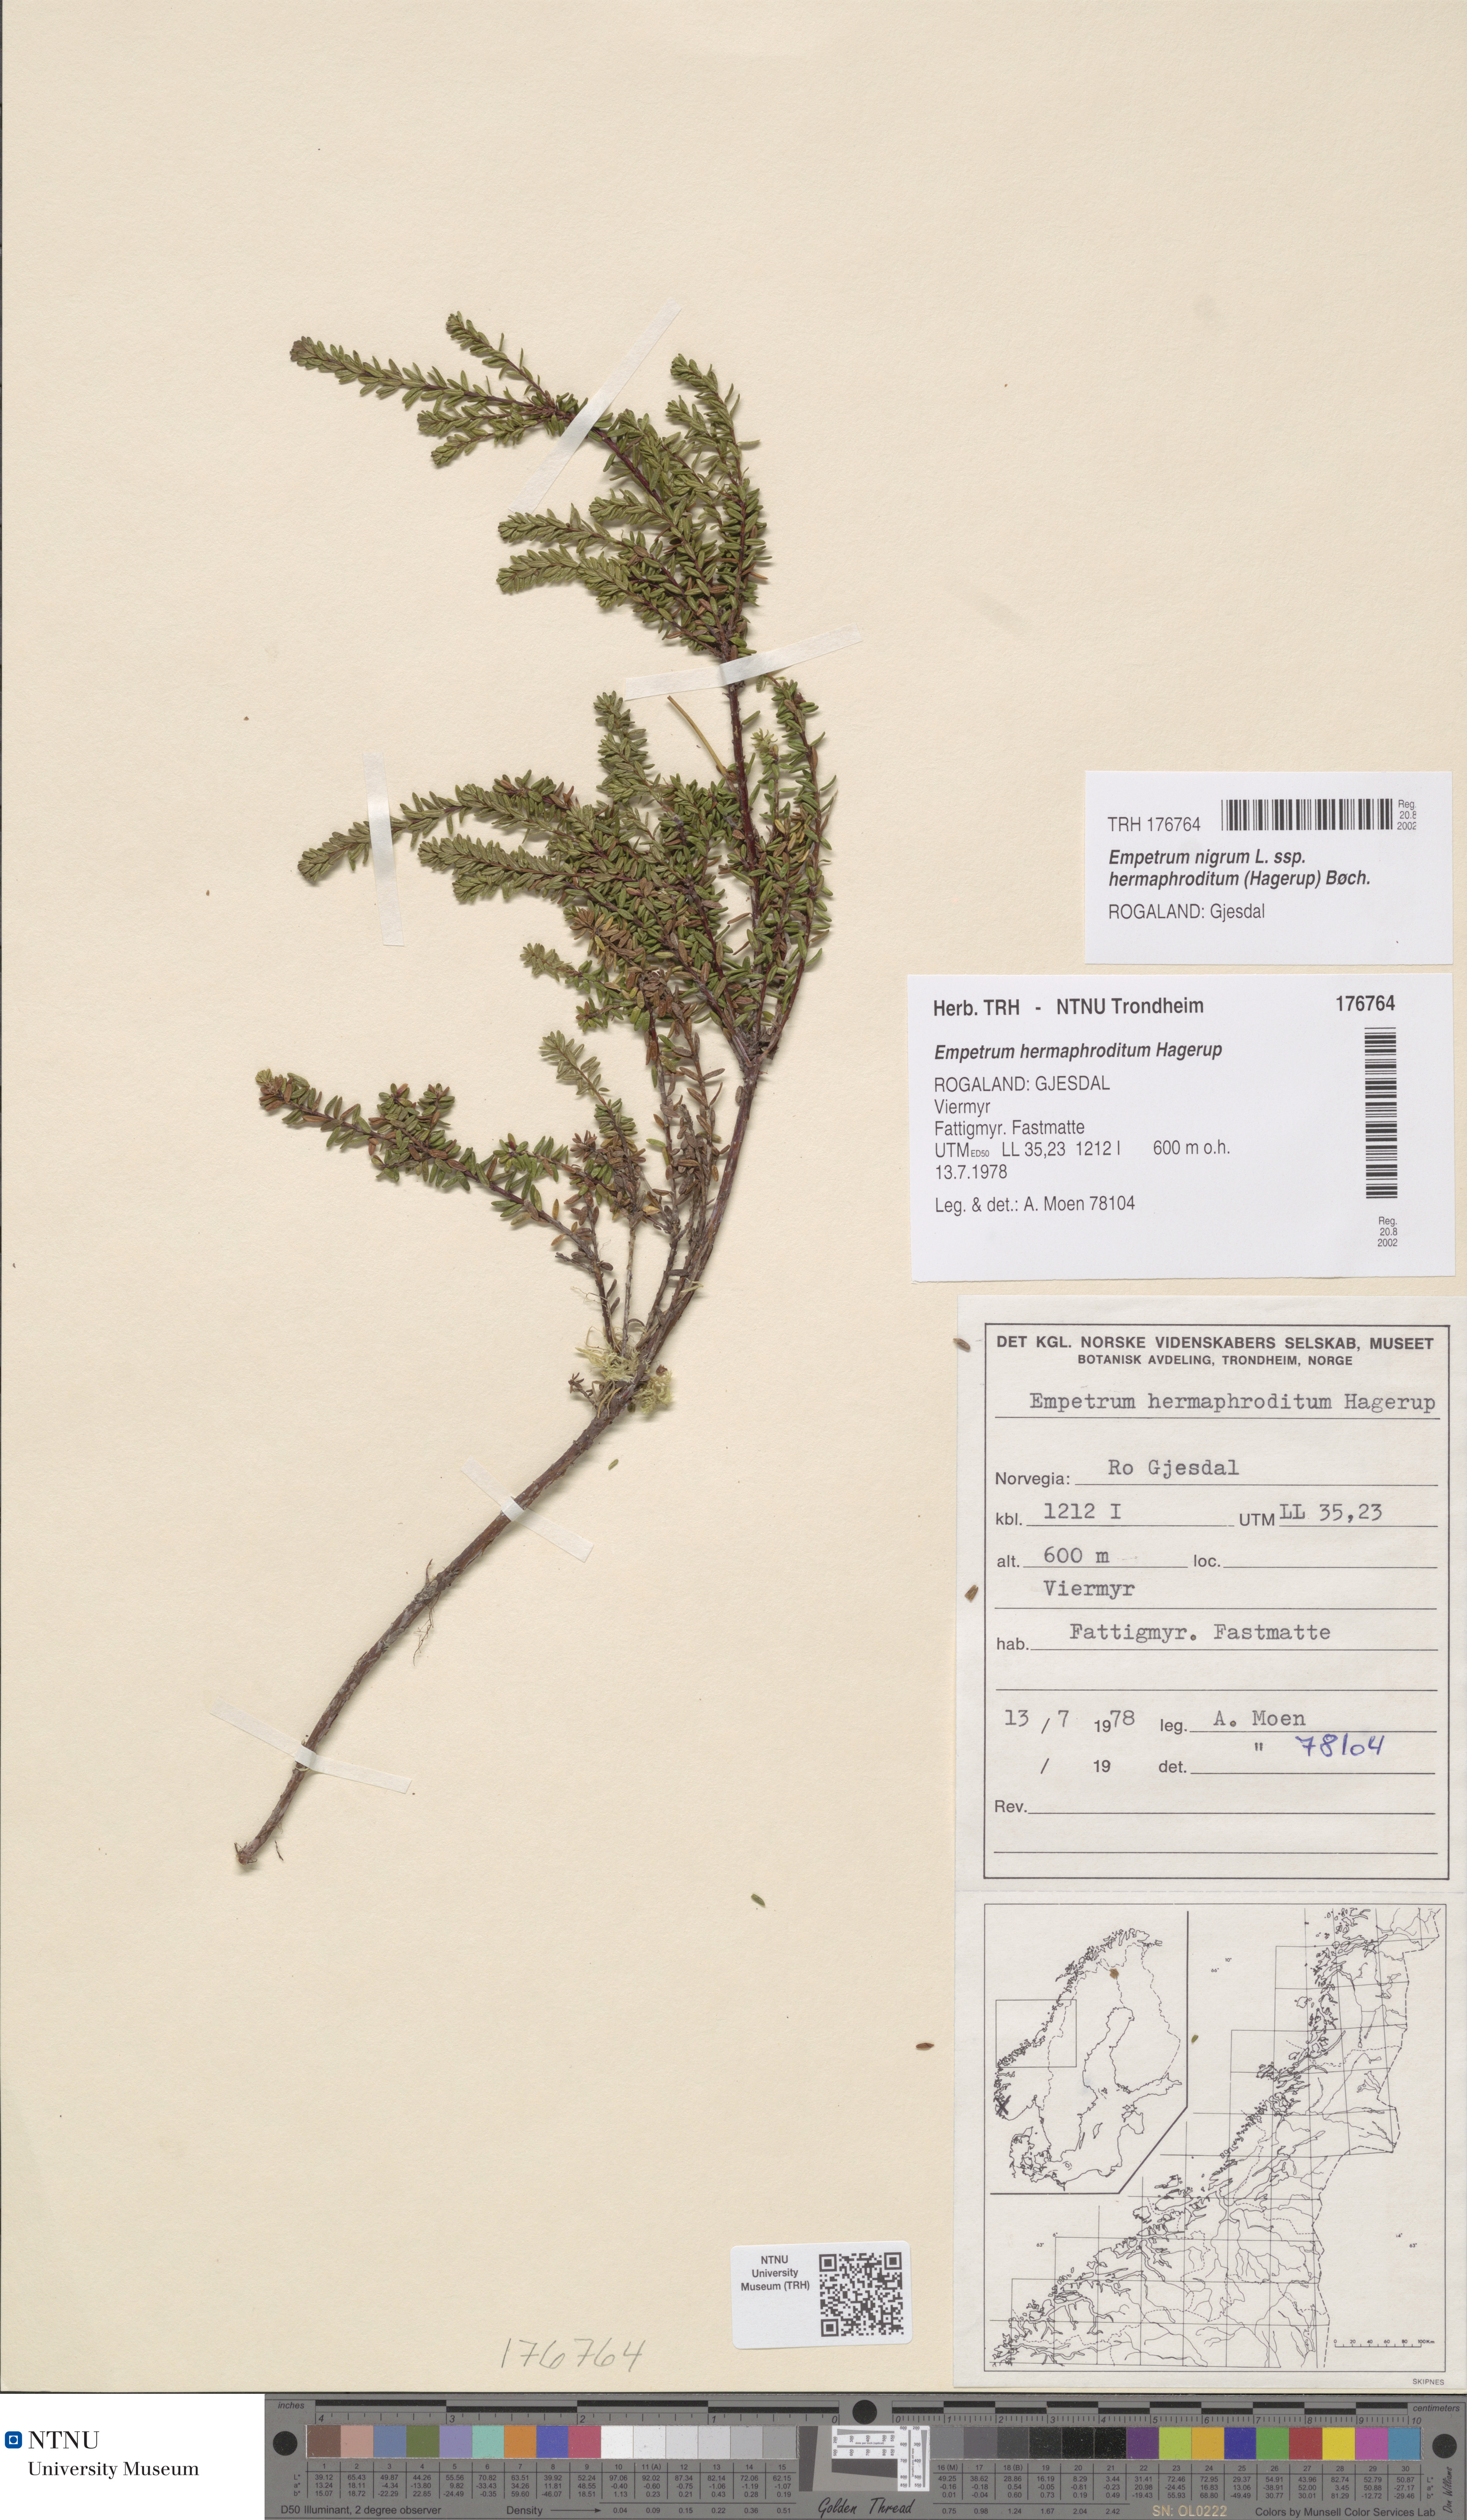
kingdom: Plantae
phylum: Tracheophyta
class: Magnoliopsida
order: Ericales
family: Ericaceae
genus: Empetrum
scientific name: Empetrum hermaphroditum
